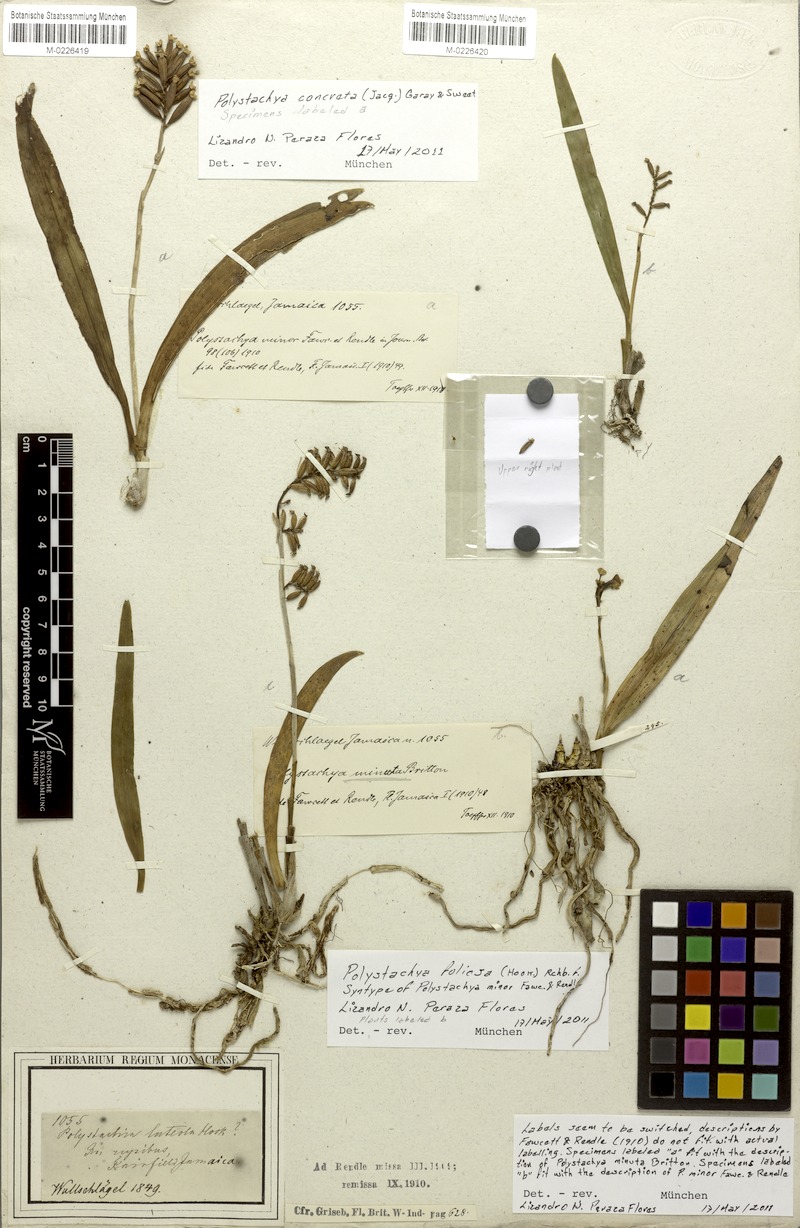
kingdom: Plantae
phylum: Tracheophyta
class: Liliopsida
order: Asparagales
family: Orchidaceae
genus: Polystachya
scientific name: Polystachya concreta
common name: Greater yellowspike orchid
